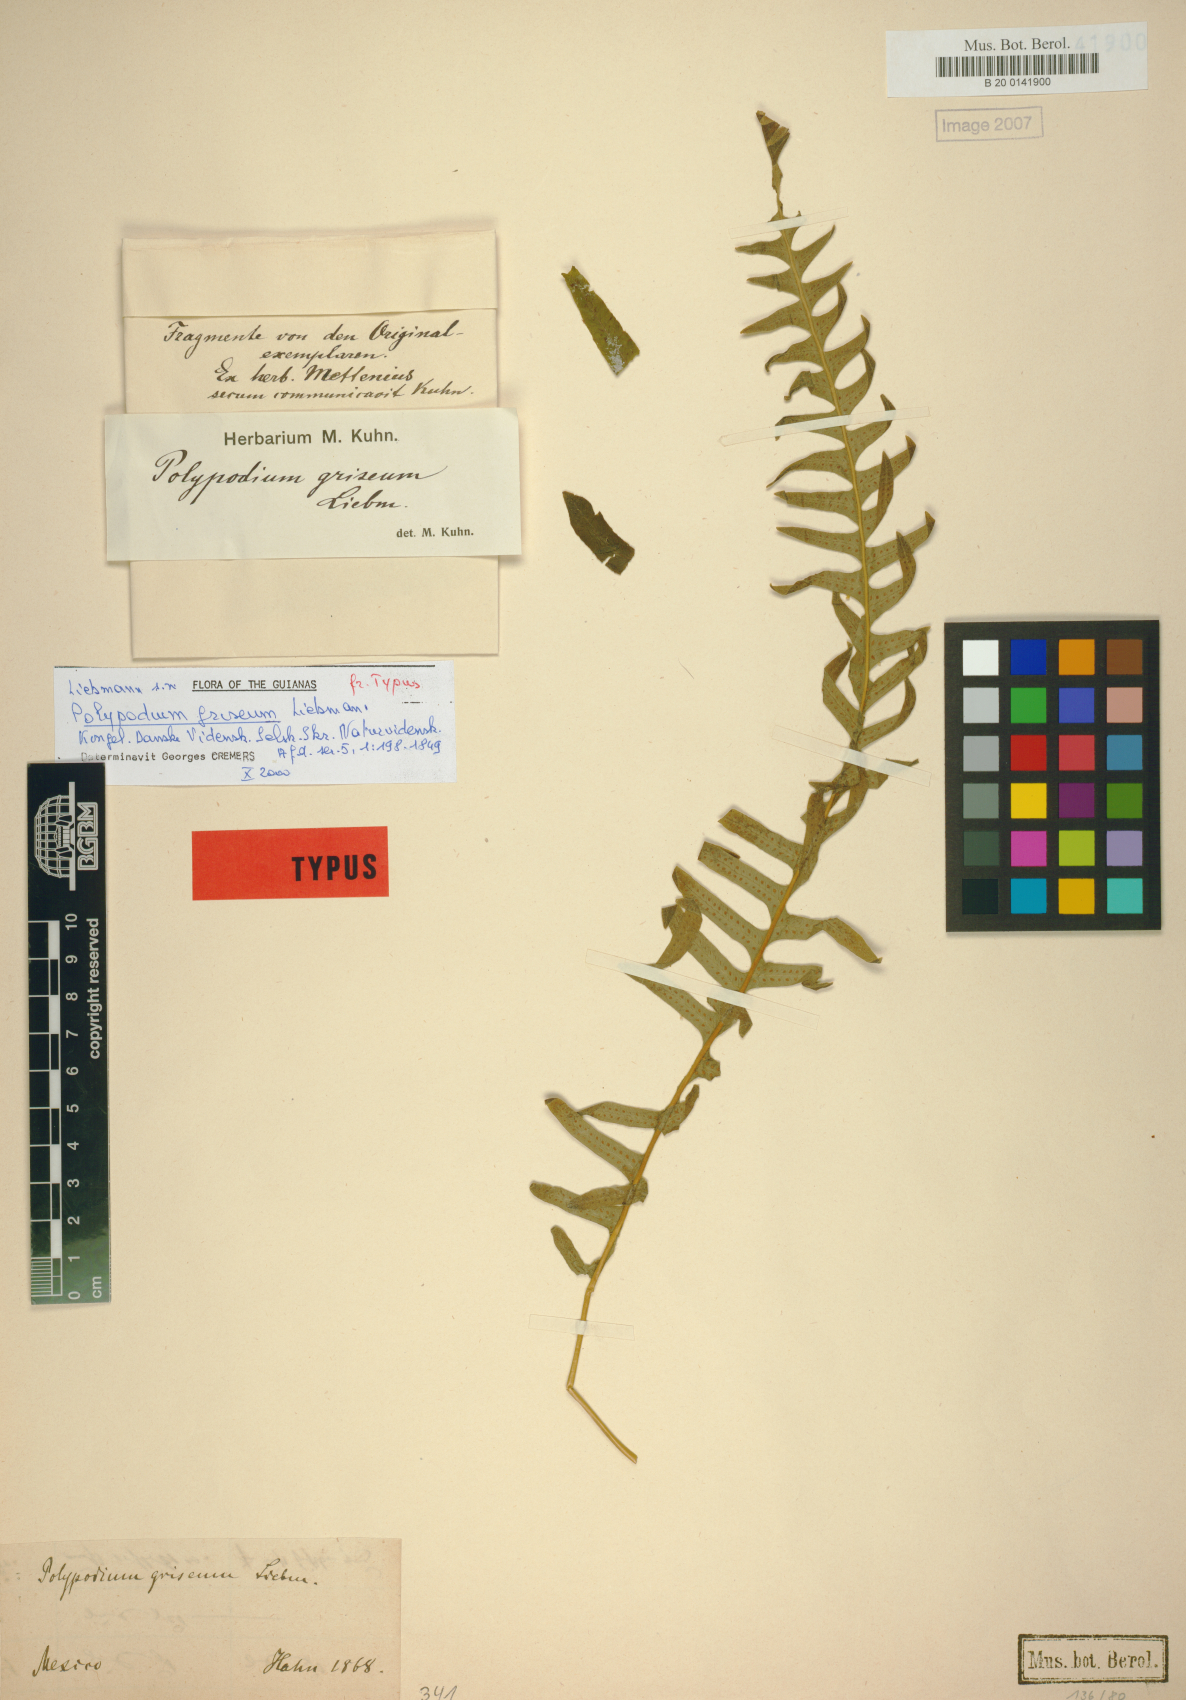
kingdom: Plantae
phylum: Tracheophyta
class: Polypodiopsida
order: Polypodiales
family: Polypodiaceae
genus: Pecluma
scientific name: Pecluma liebmannii
